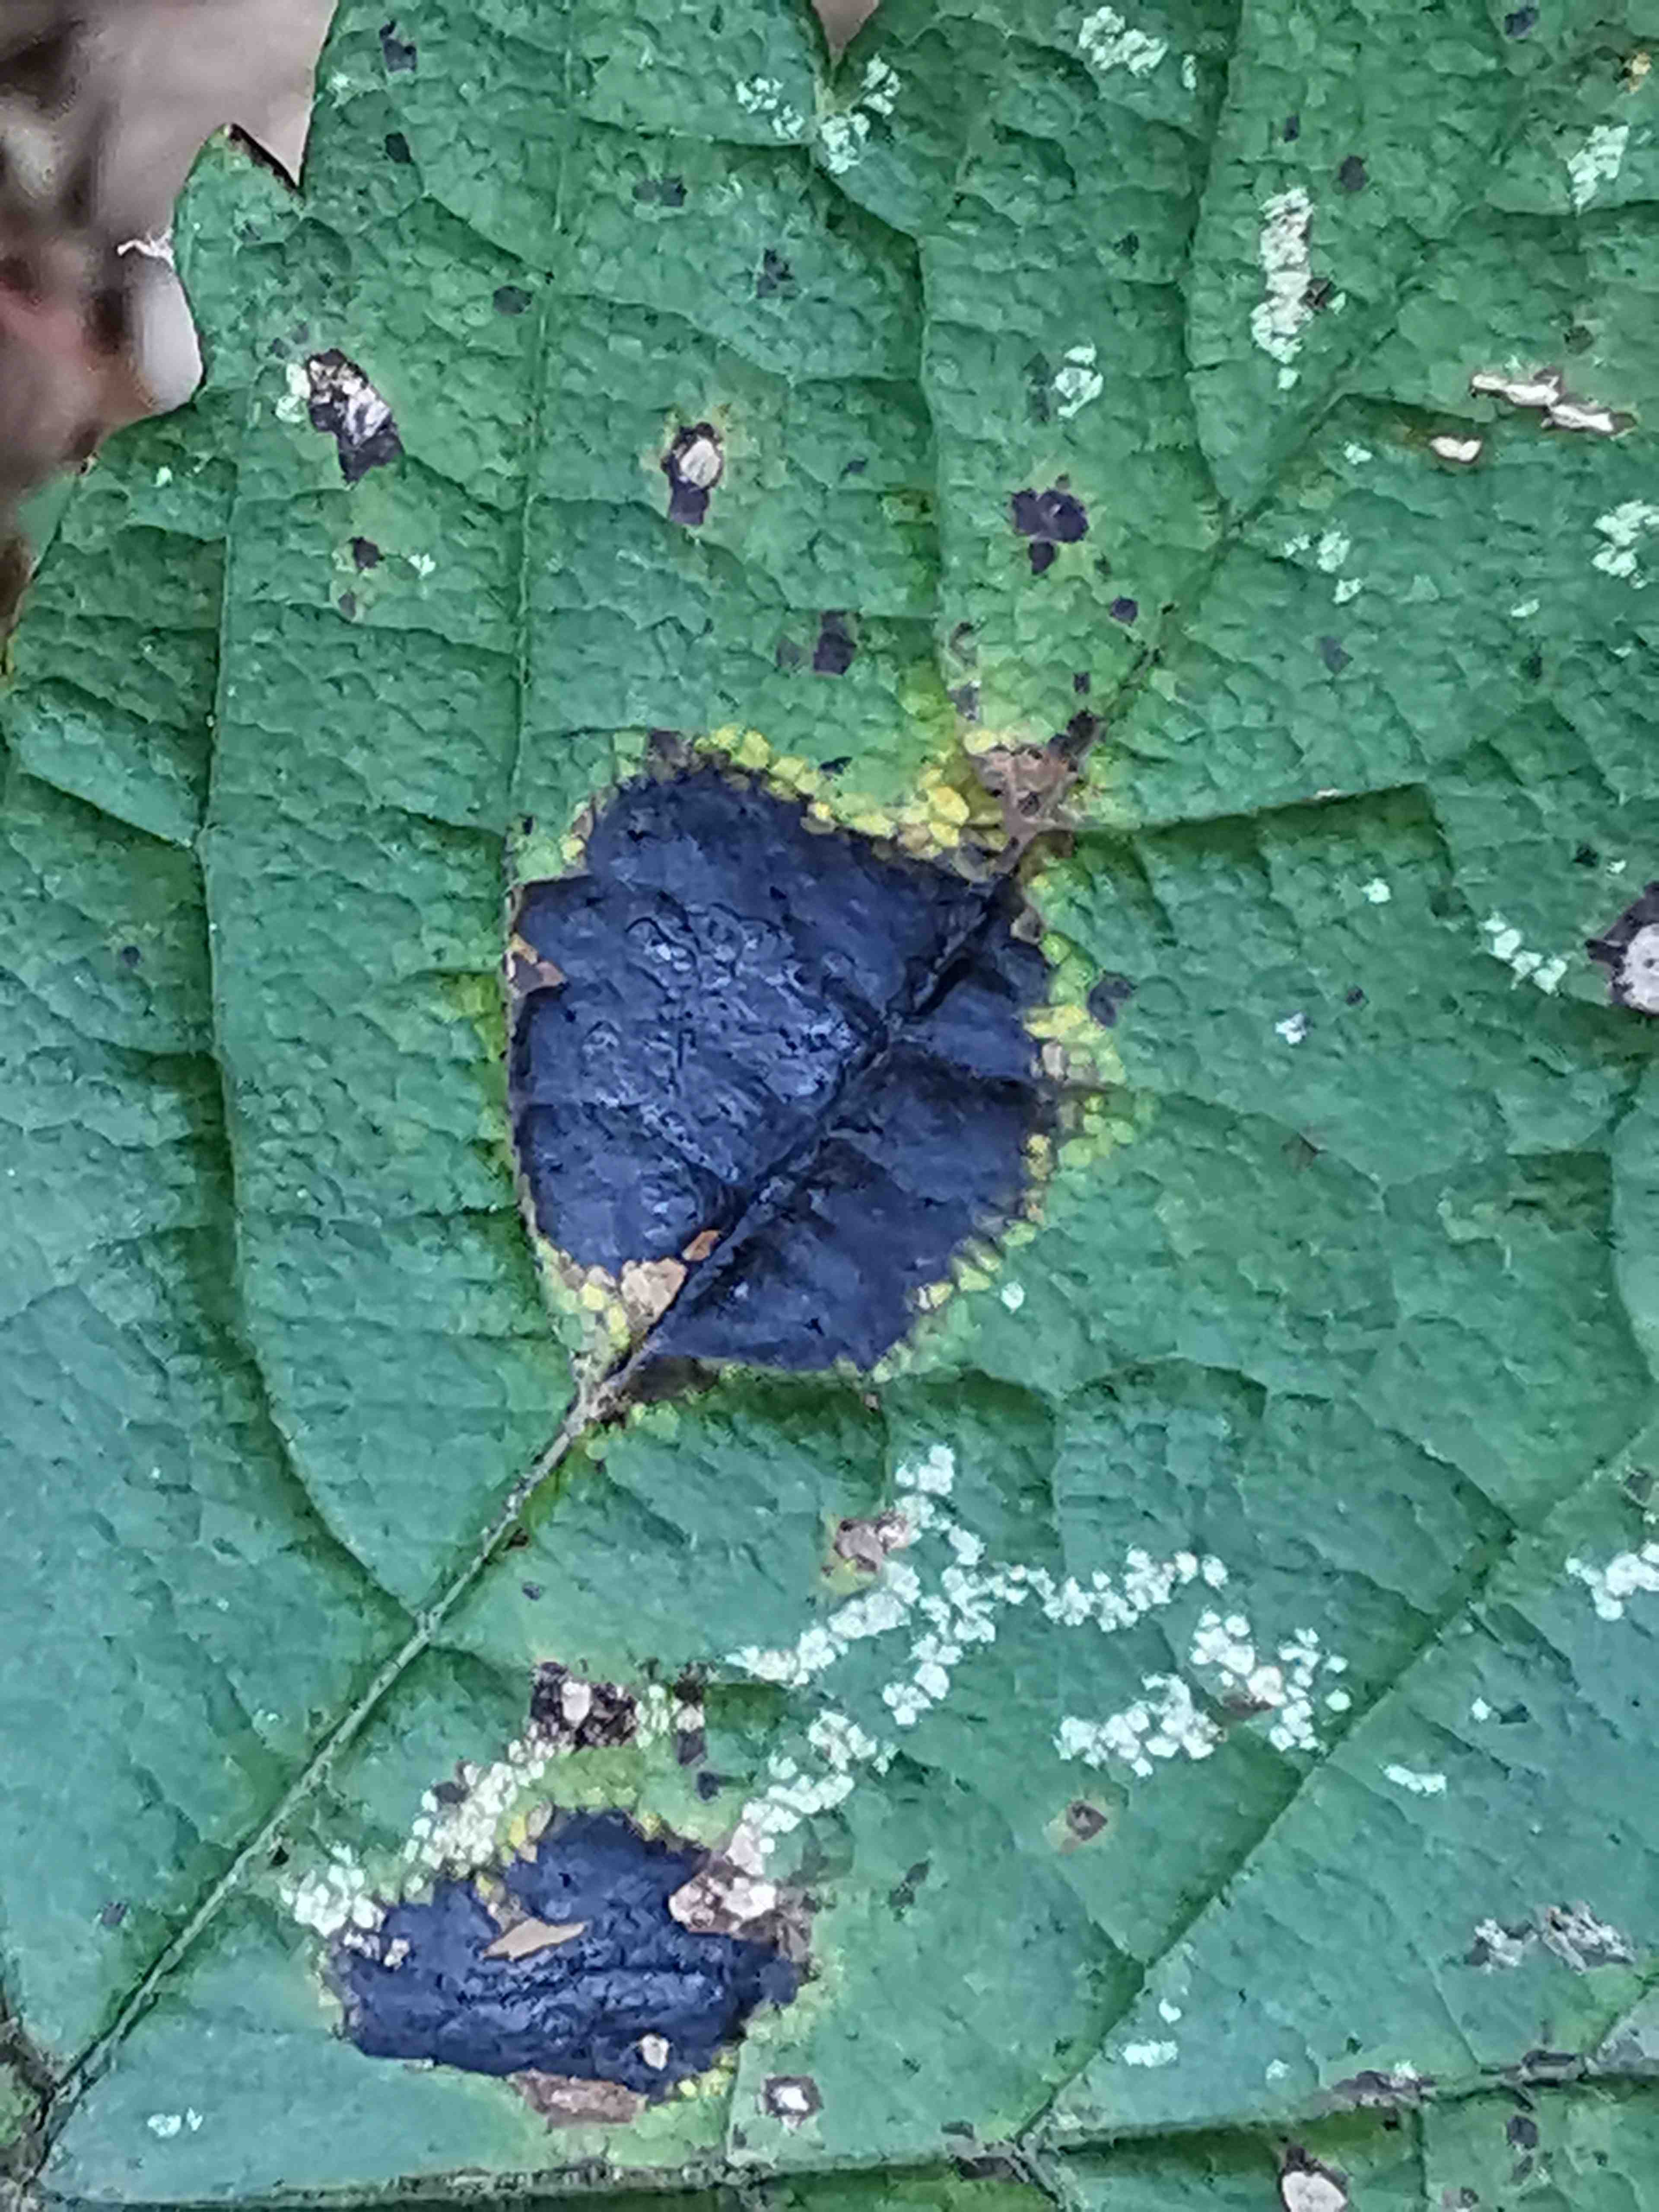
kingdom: Fungi
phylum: Ascomycota
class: Leotiomycetes
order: Rhytismatales
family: Rhytismataceae
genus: Rhytisma
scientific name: Rhytisma acerinum
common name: ahorn-rynkeplet
